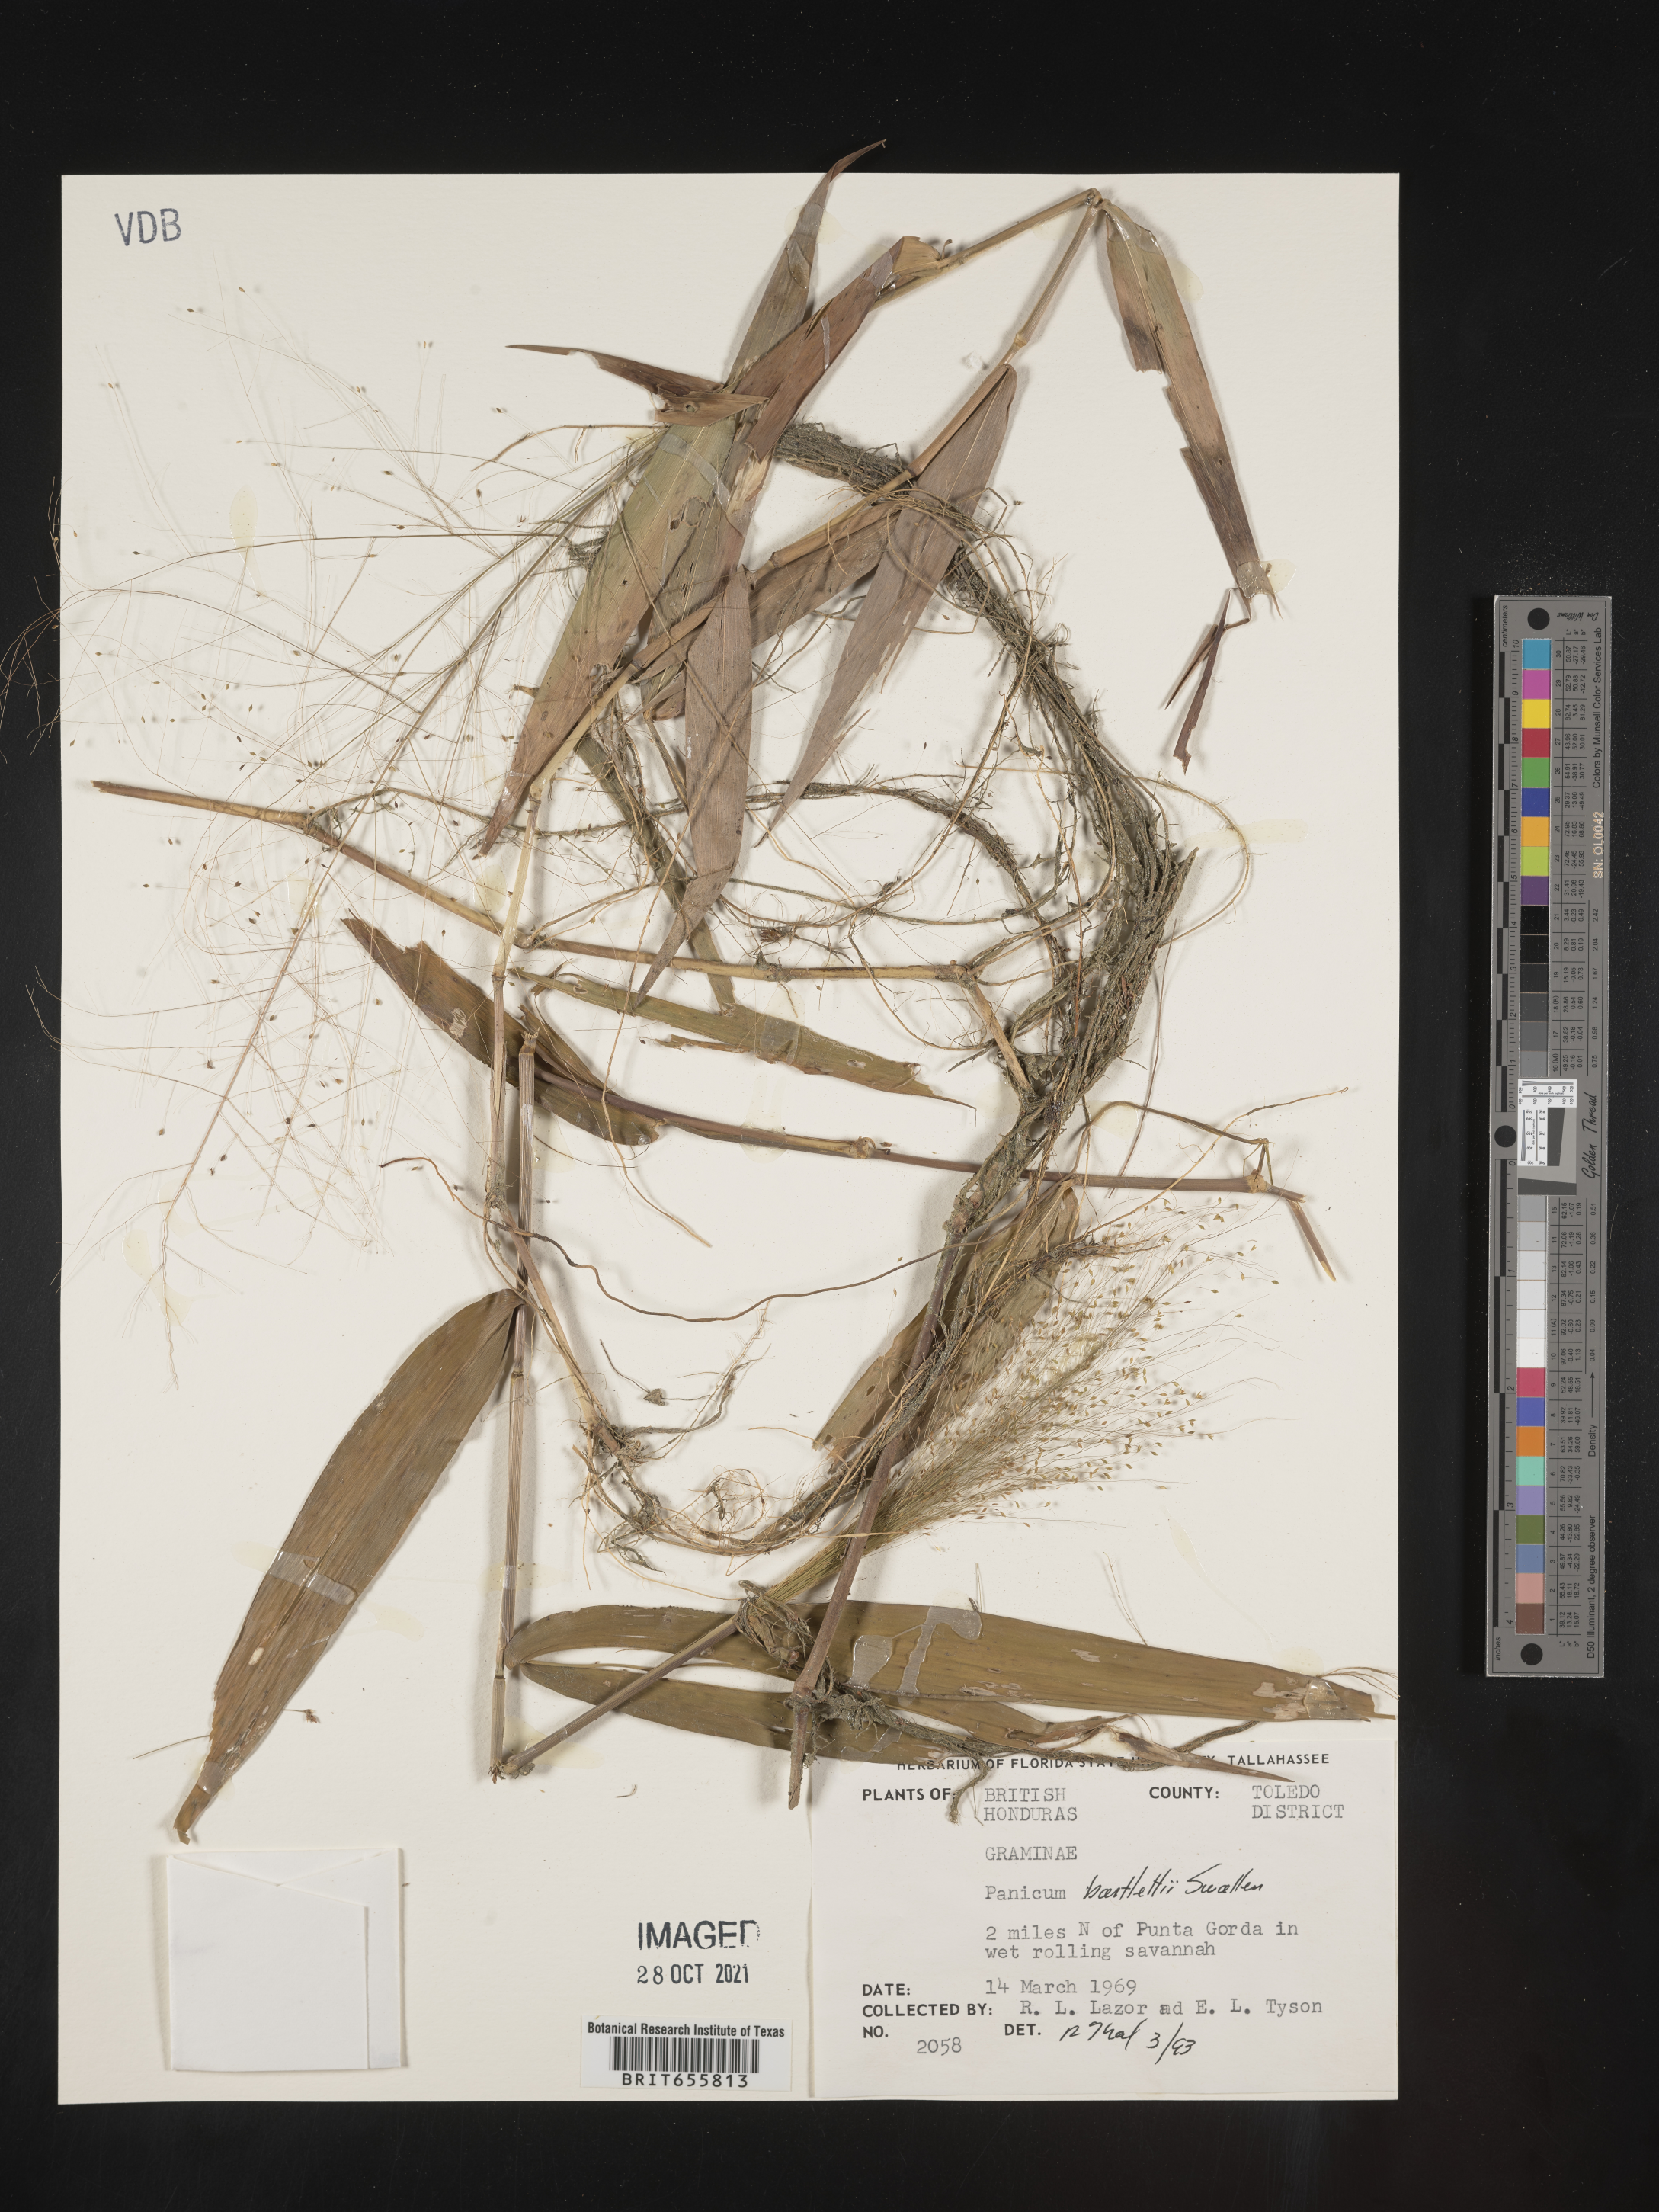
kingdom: Plantae
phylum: Tracheophyta
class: Liliopsida
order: Poales
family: Poaceae
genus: Panicum
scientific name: Panicum
